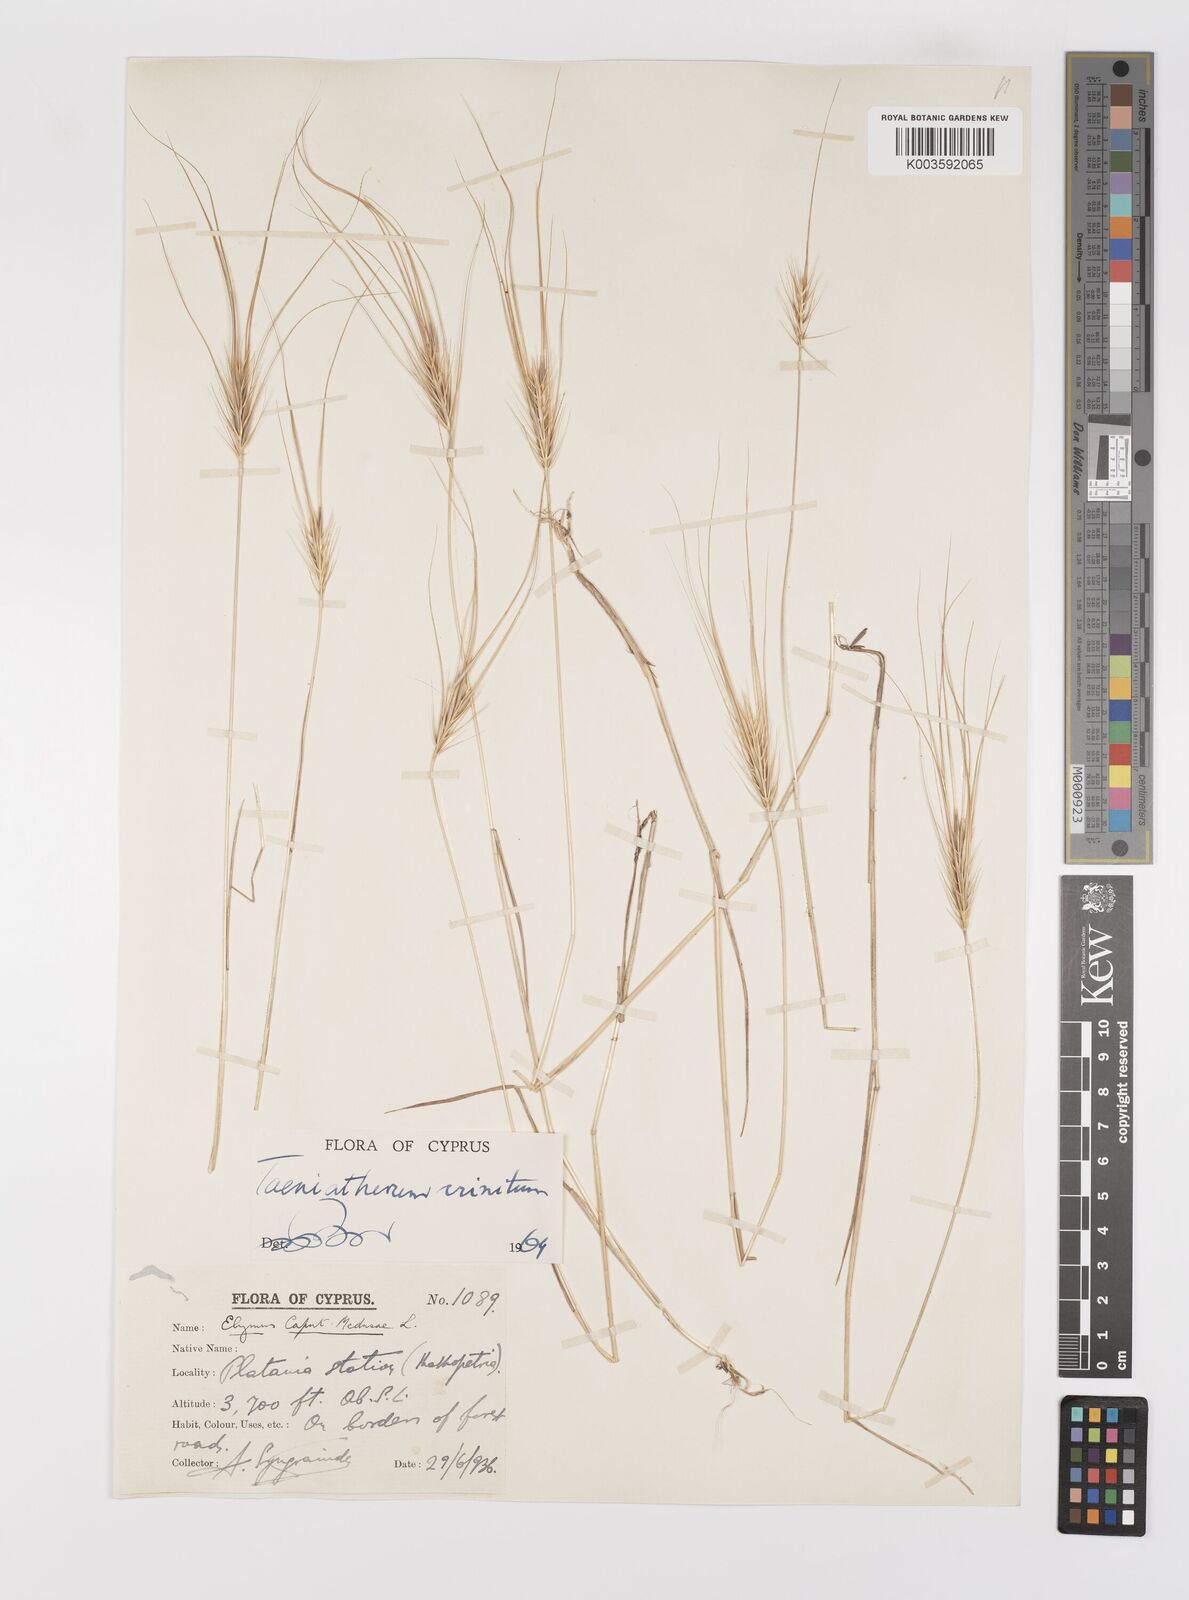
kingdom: Plantae
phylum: Tracheophyta
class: Liliopsida
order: Poales
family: Poaceae
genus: Taeniatherum
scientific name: Taeniatherum caput-medusae
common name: Medusahead
